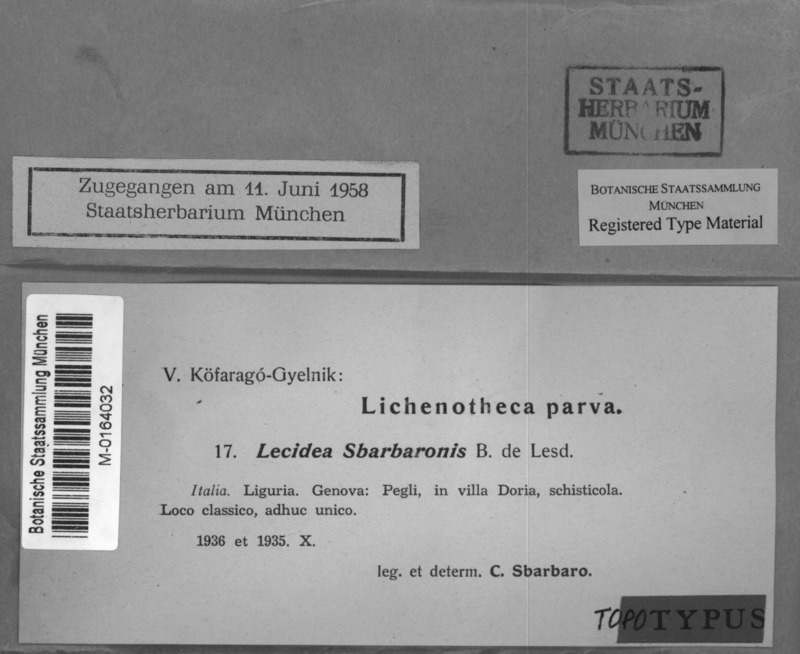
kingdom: Fungi
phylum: Ascomycota
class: Lecanoromycetes
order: Lecideales
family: Lecideaceae
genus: Lecidea
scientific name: Lecidea sbarbaronis
